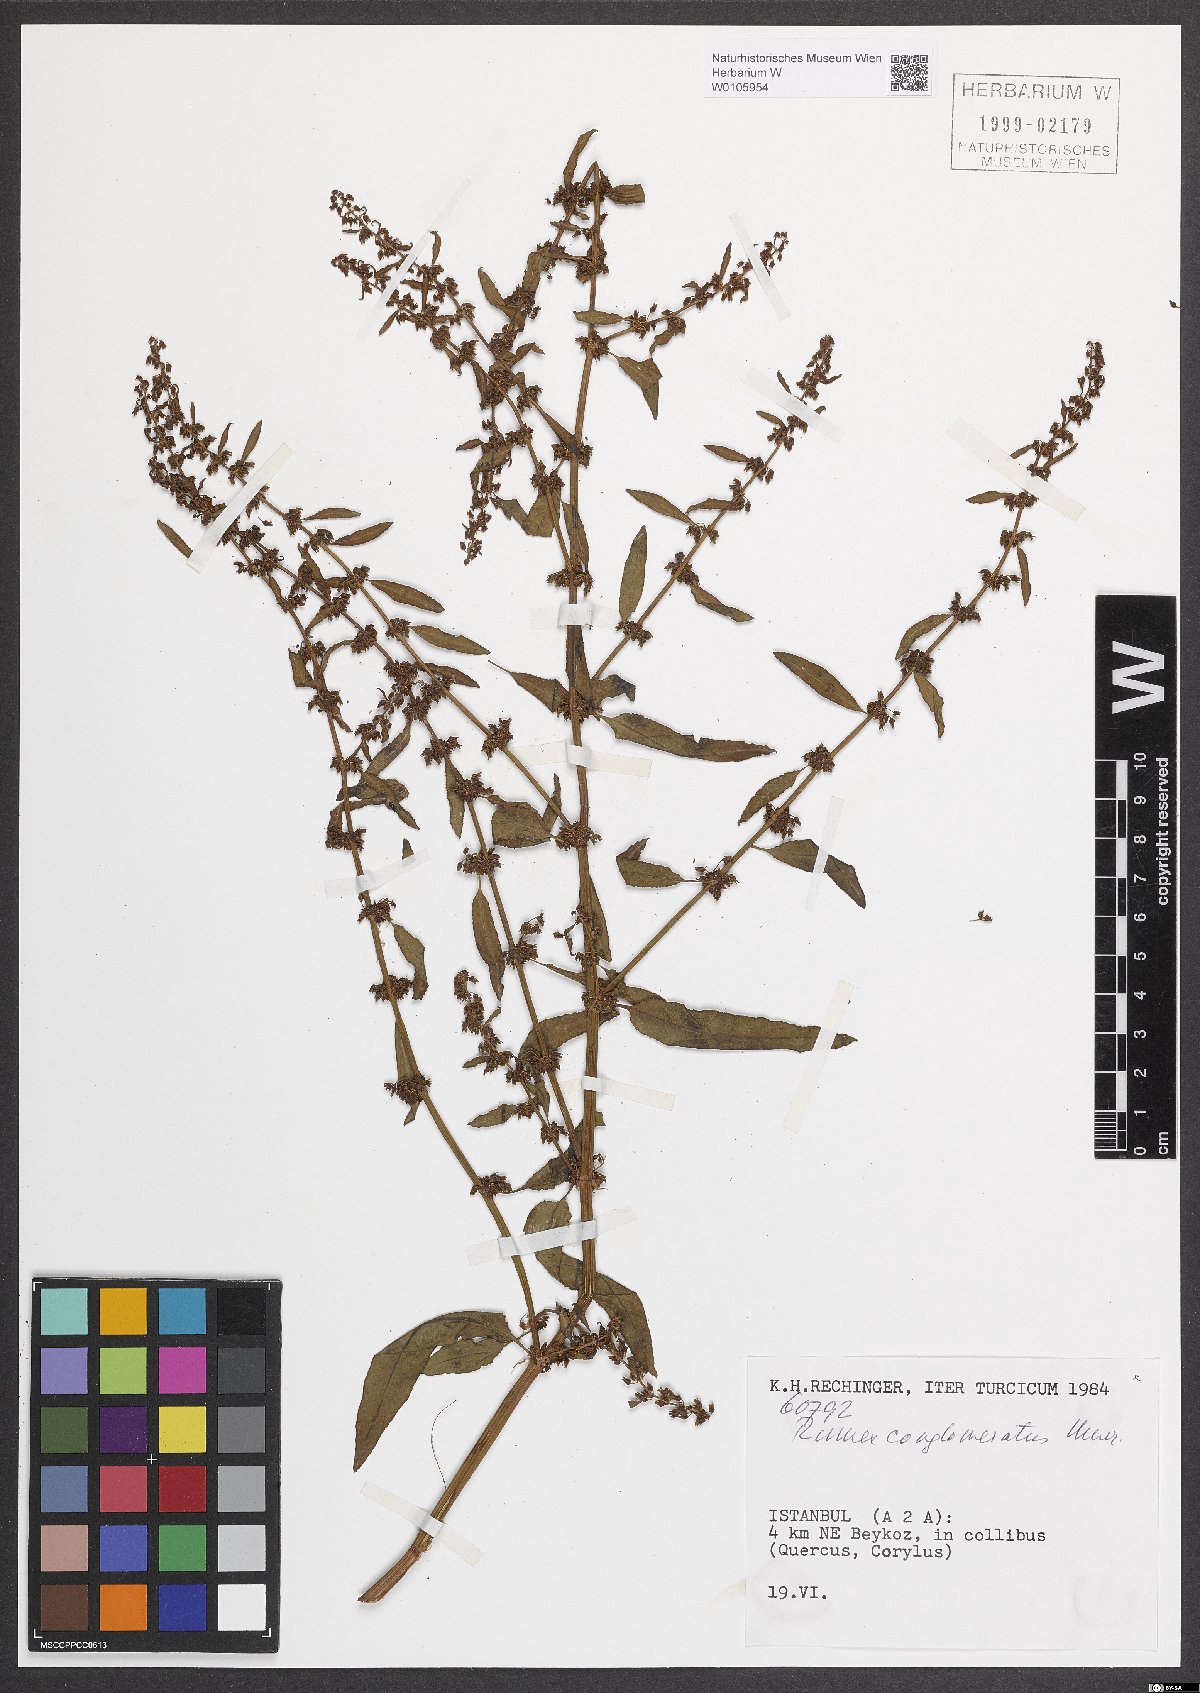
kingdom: Plantae
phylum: Tracheophyta
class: Magnoliopsida
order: Caryophyllales
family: Polygonaceae
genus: Rumex
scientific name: Rumex conglomeratus
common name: Clustered dock
